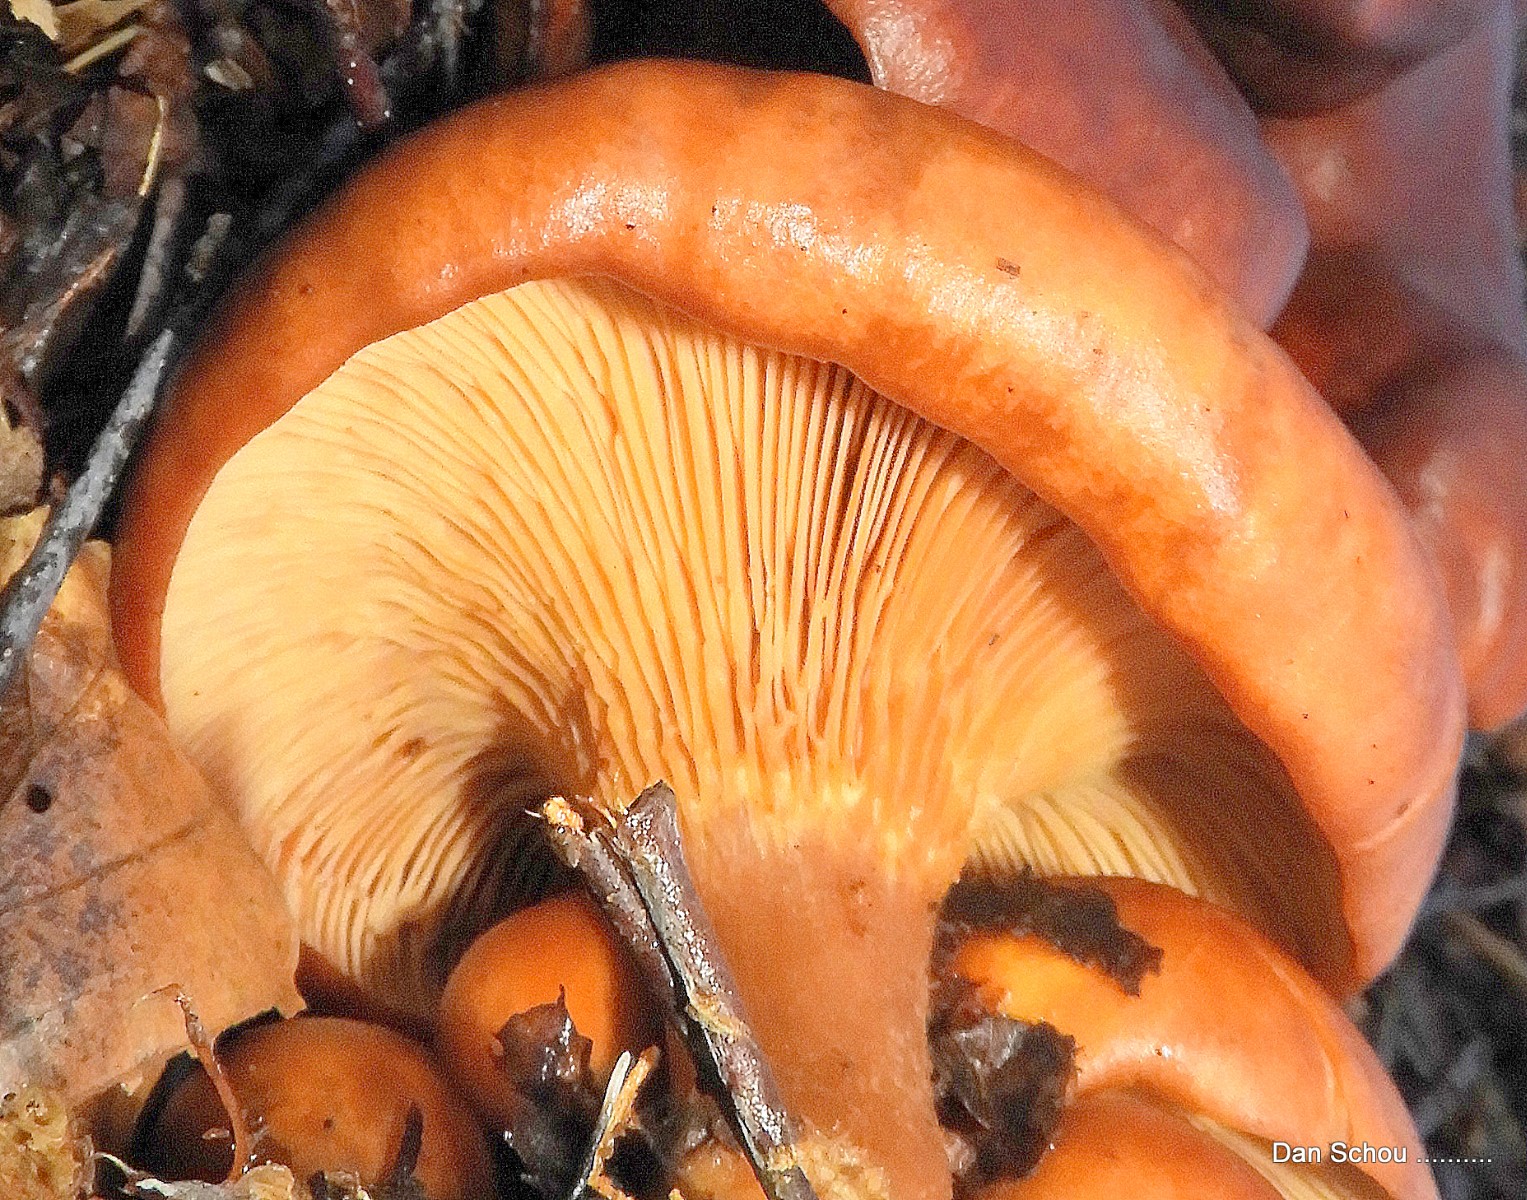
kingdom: Fungi
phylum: Basidiomycota
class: Agaricomycetes
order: Agaricales
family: Tricholomataceae
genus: Paralepista
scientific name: Paralepista flaccida
